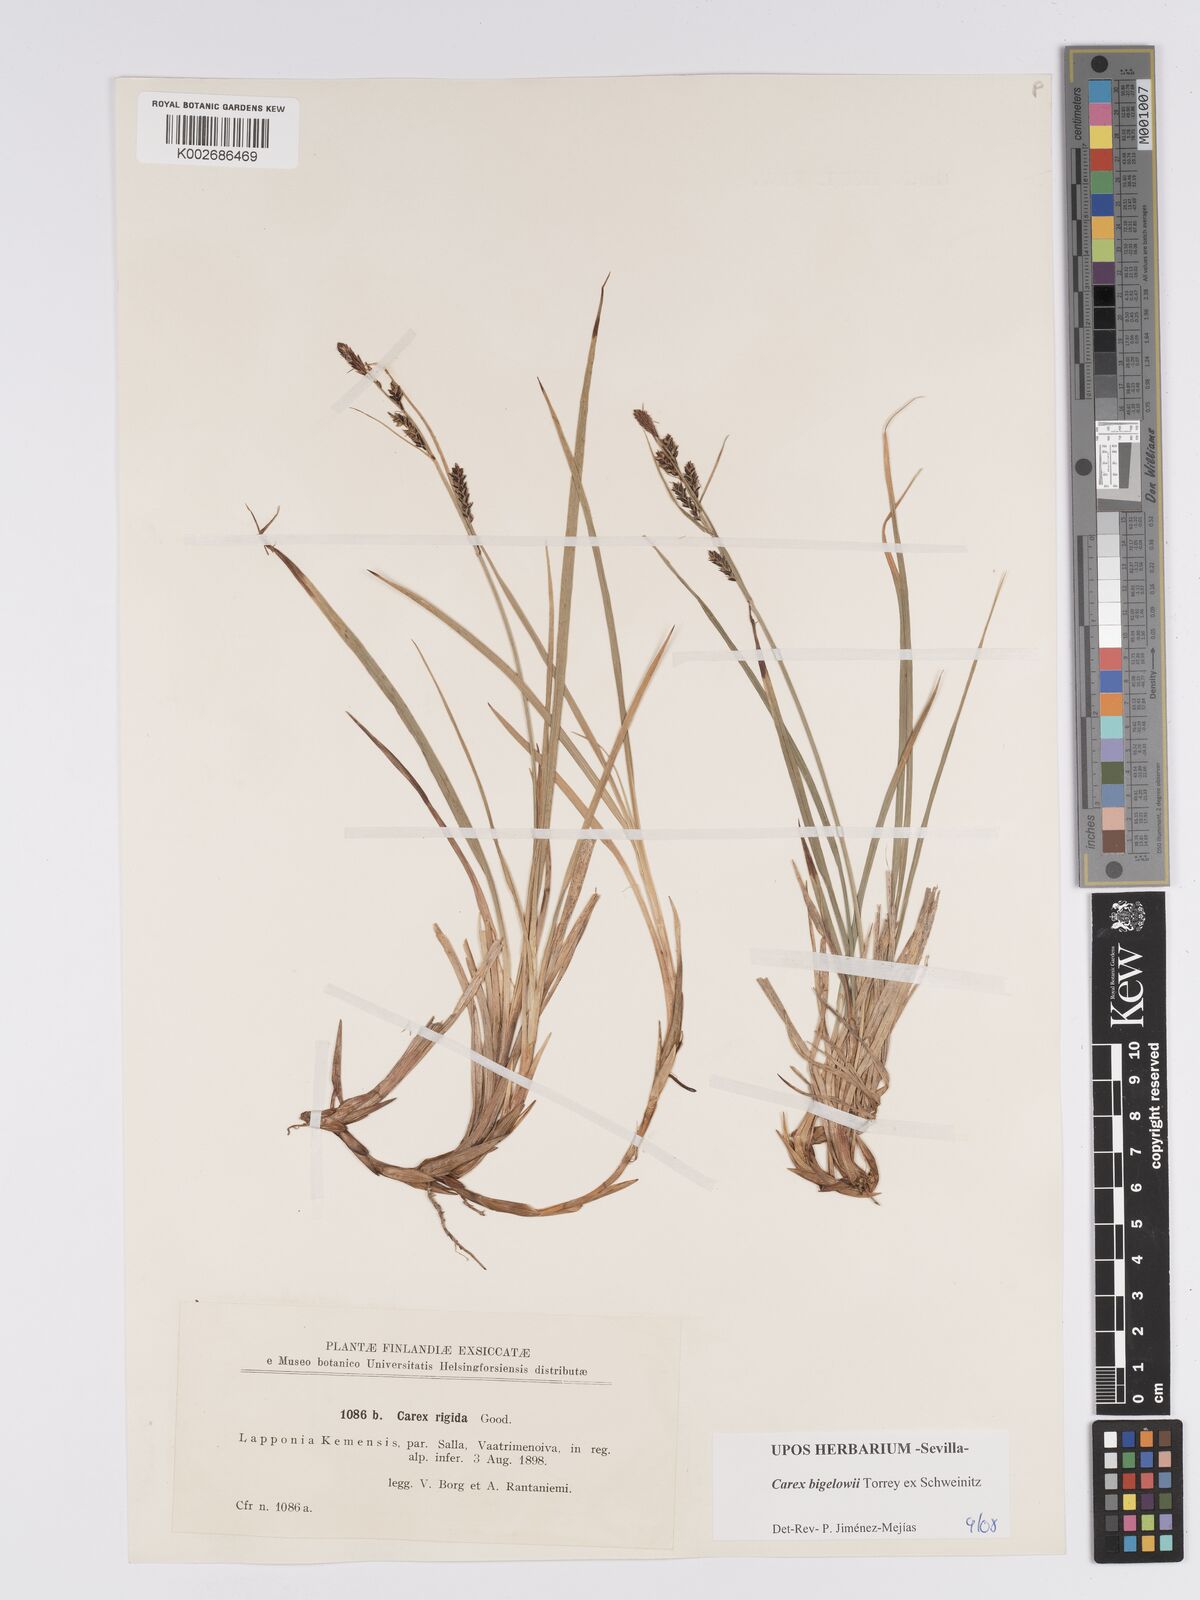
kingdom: Plantae
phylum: Tracheophyta
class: Liliopsida
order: Poales
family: Cyperaceae
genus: Carex
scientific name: Carex bigelowii
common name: Stiff sedge
